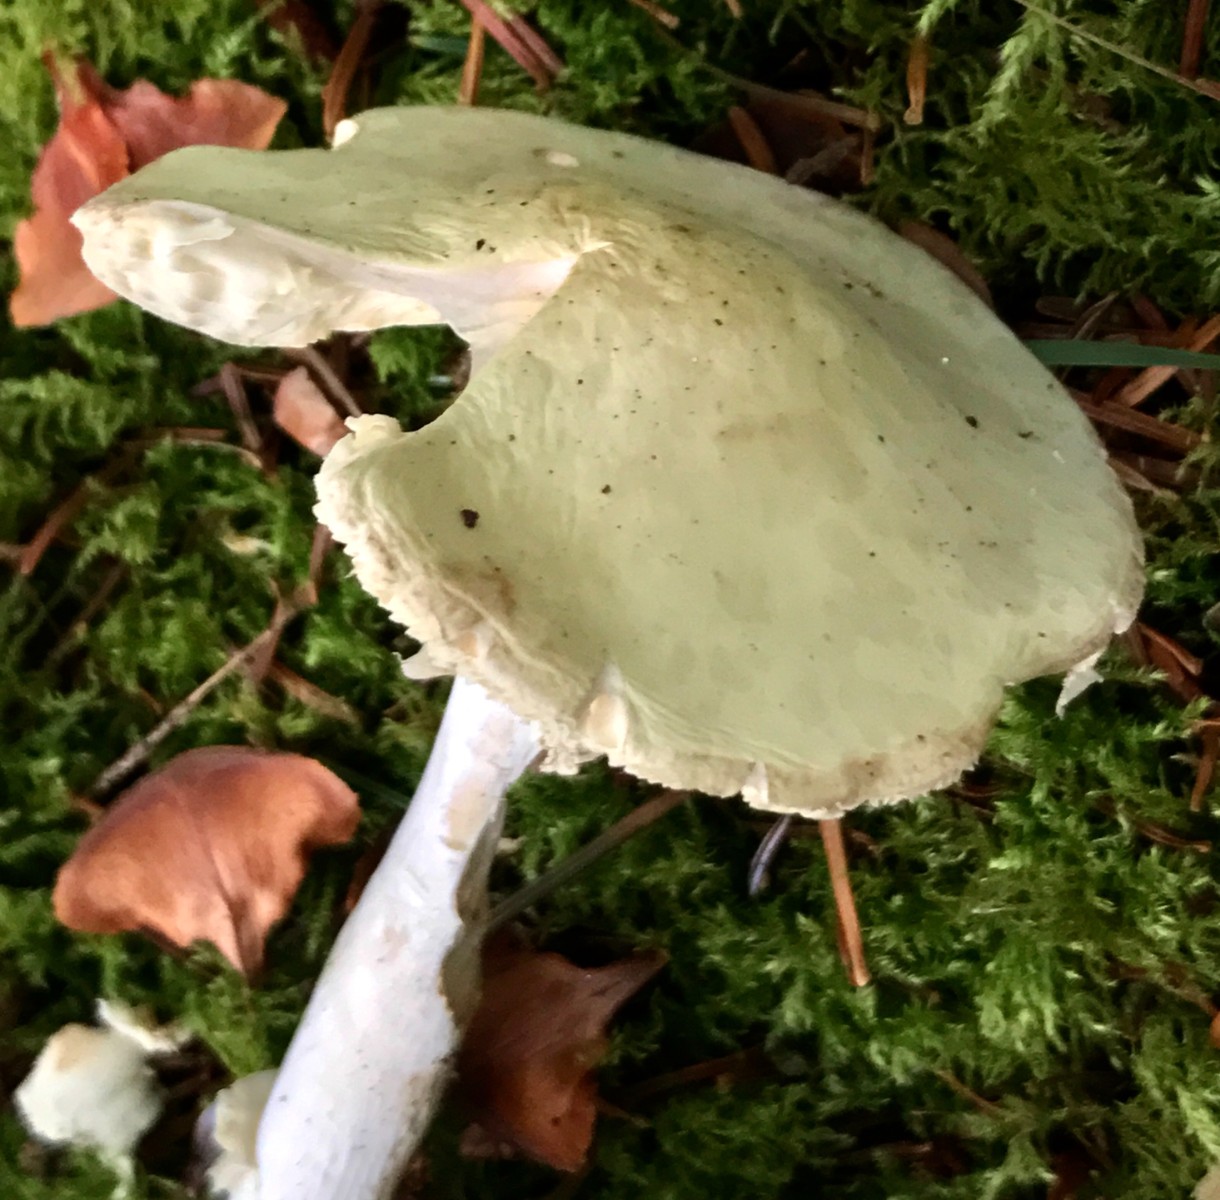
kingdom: Fungi
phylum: Basidiomycota
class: Agaricomycetes
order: Agaricales
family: Amanitaceae
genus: Amanita
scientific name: Amanita phalloides
